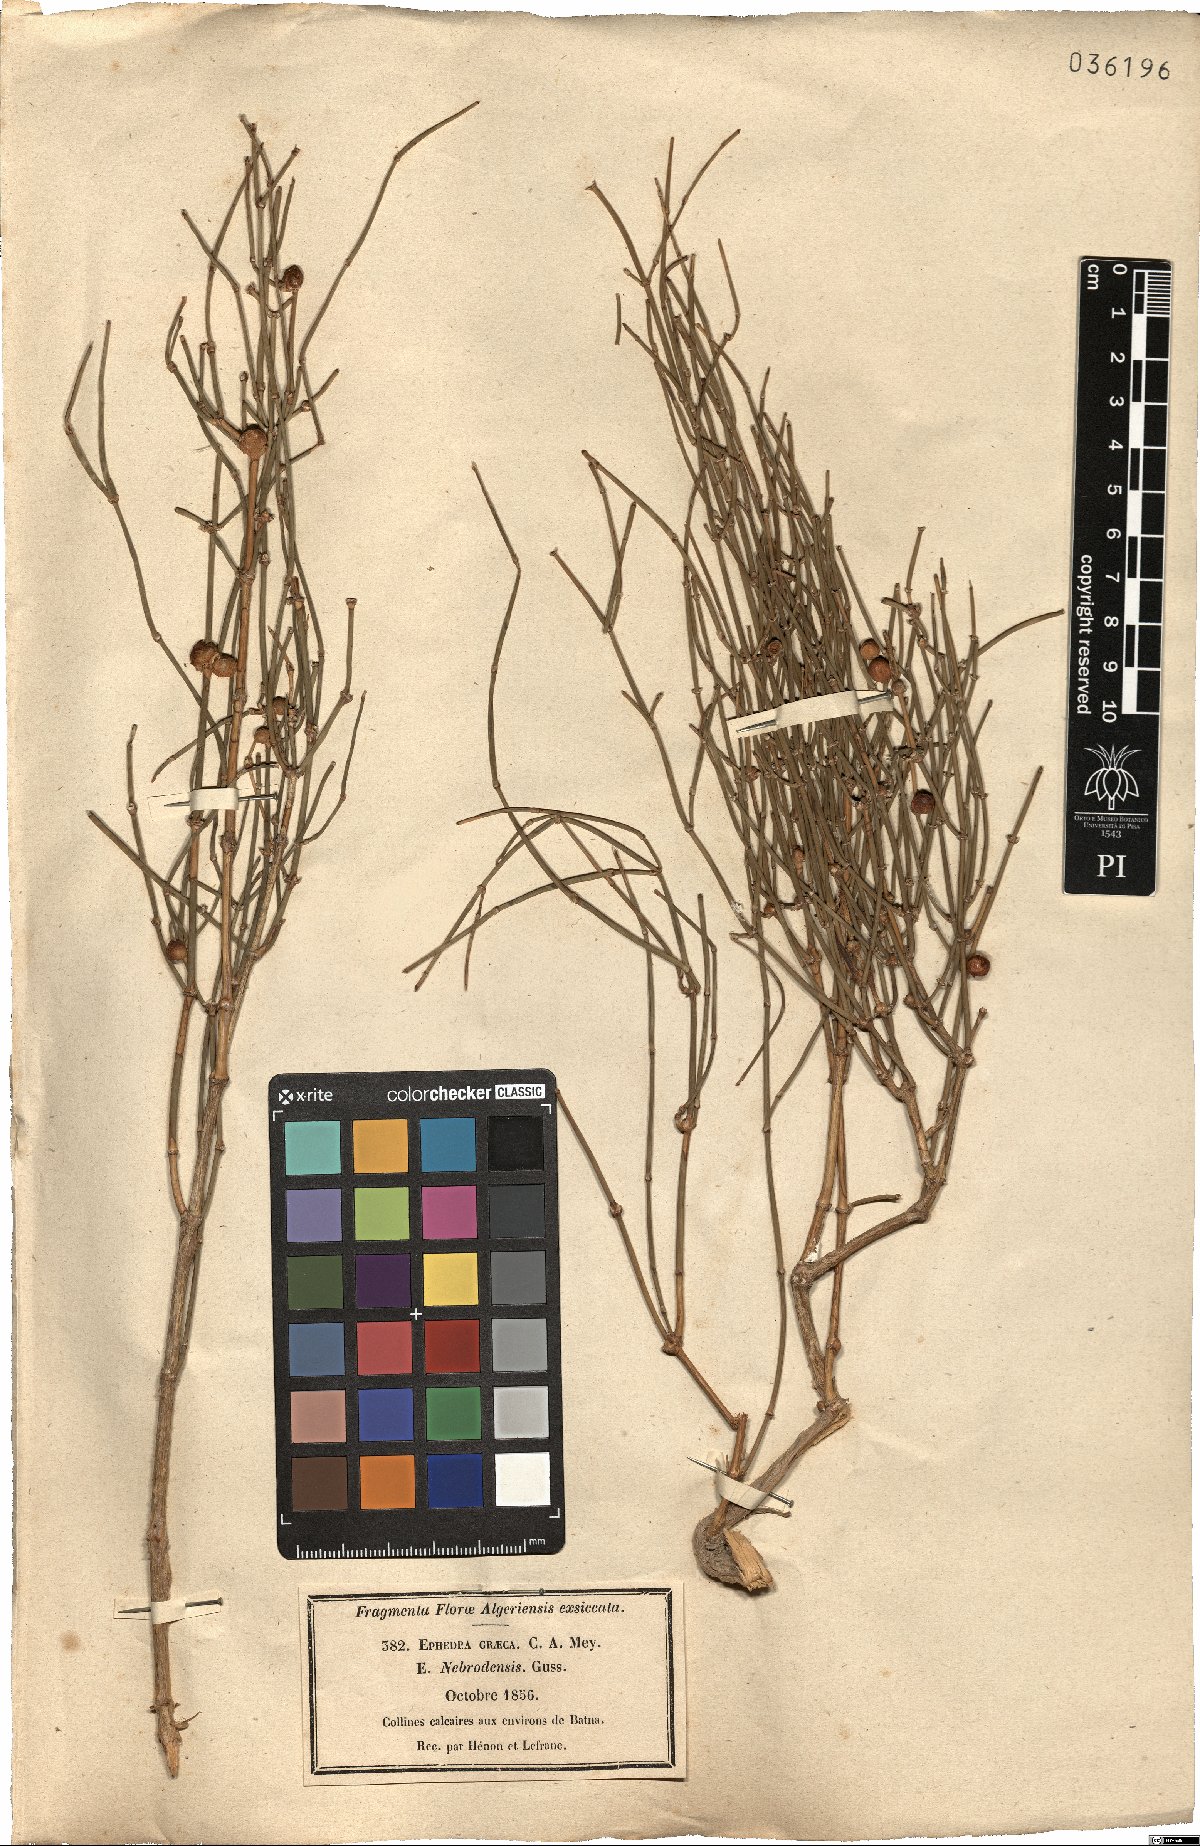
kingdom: Plantae
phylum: Tracheophyta
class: Gnetopsida
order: Ephedrales
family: Ephedraceae
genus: Ephedra
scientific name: Ephedra foeminea
